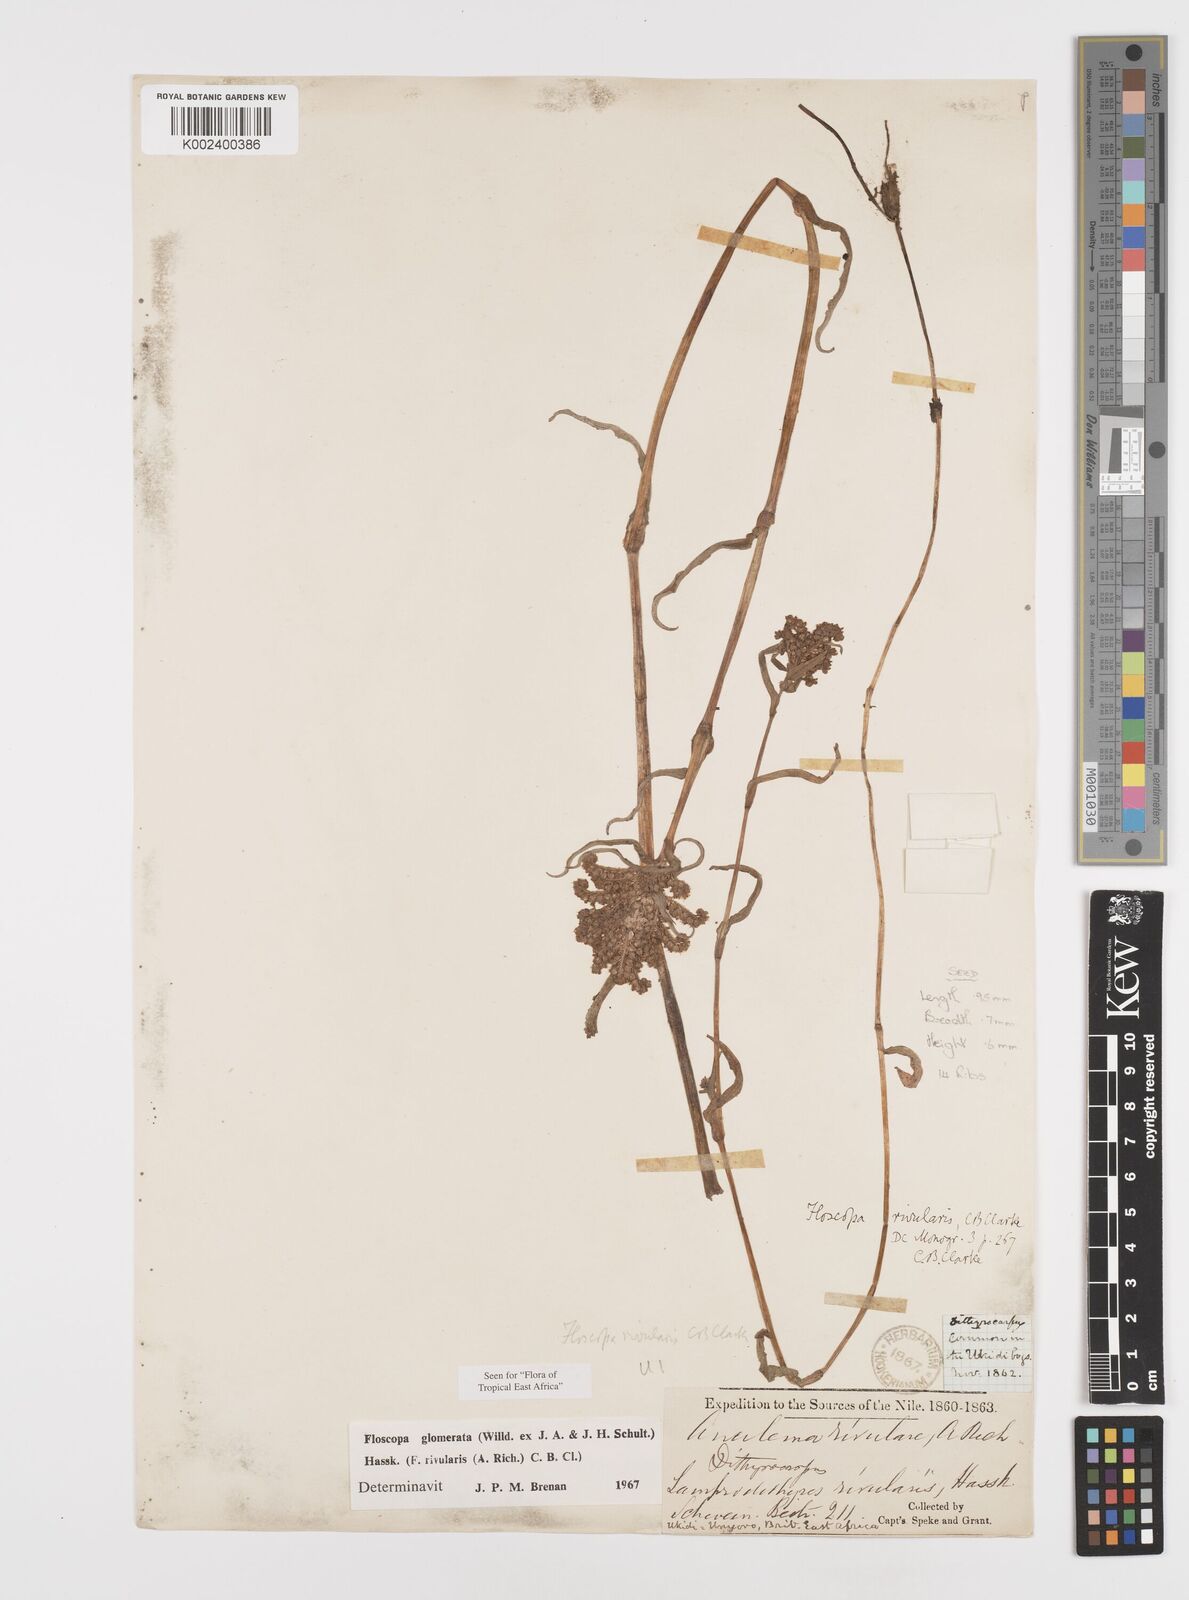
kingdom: Plantae
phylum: Tracheophyta
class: Liliopsida
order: Commelinales
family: Commelinaceae
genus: Floscopa
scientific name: Floscopa glomerata
